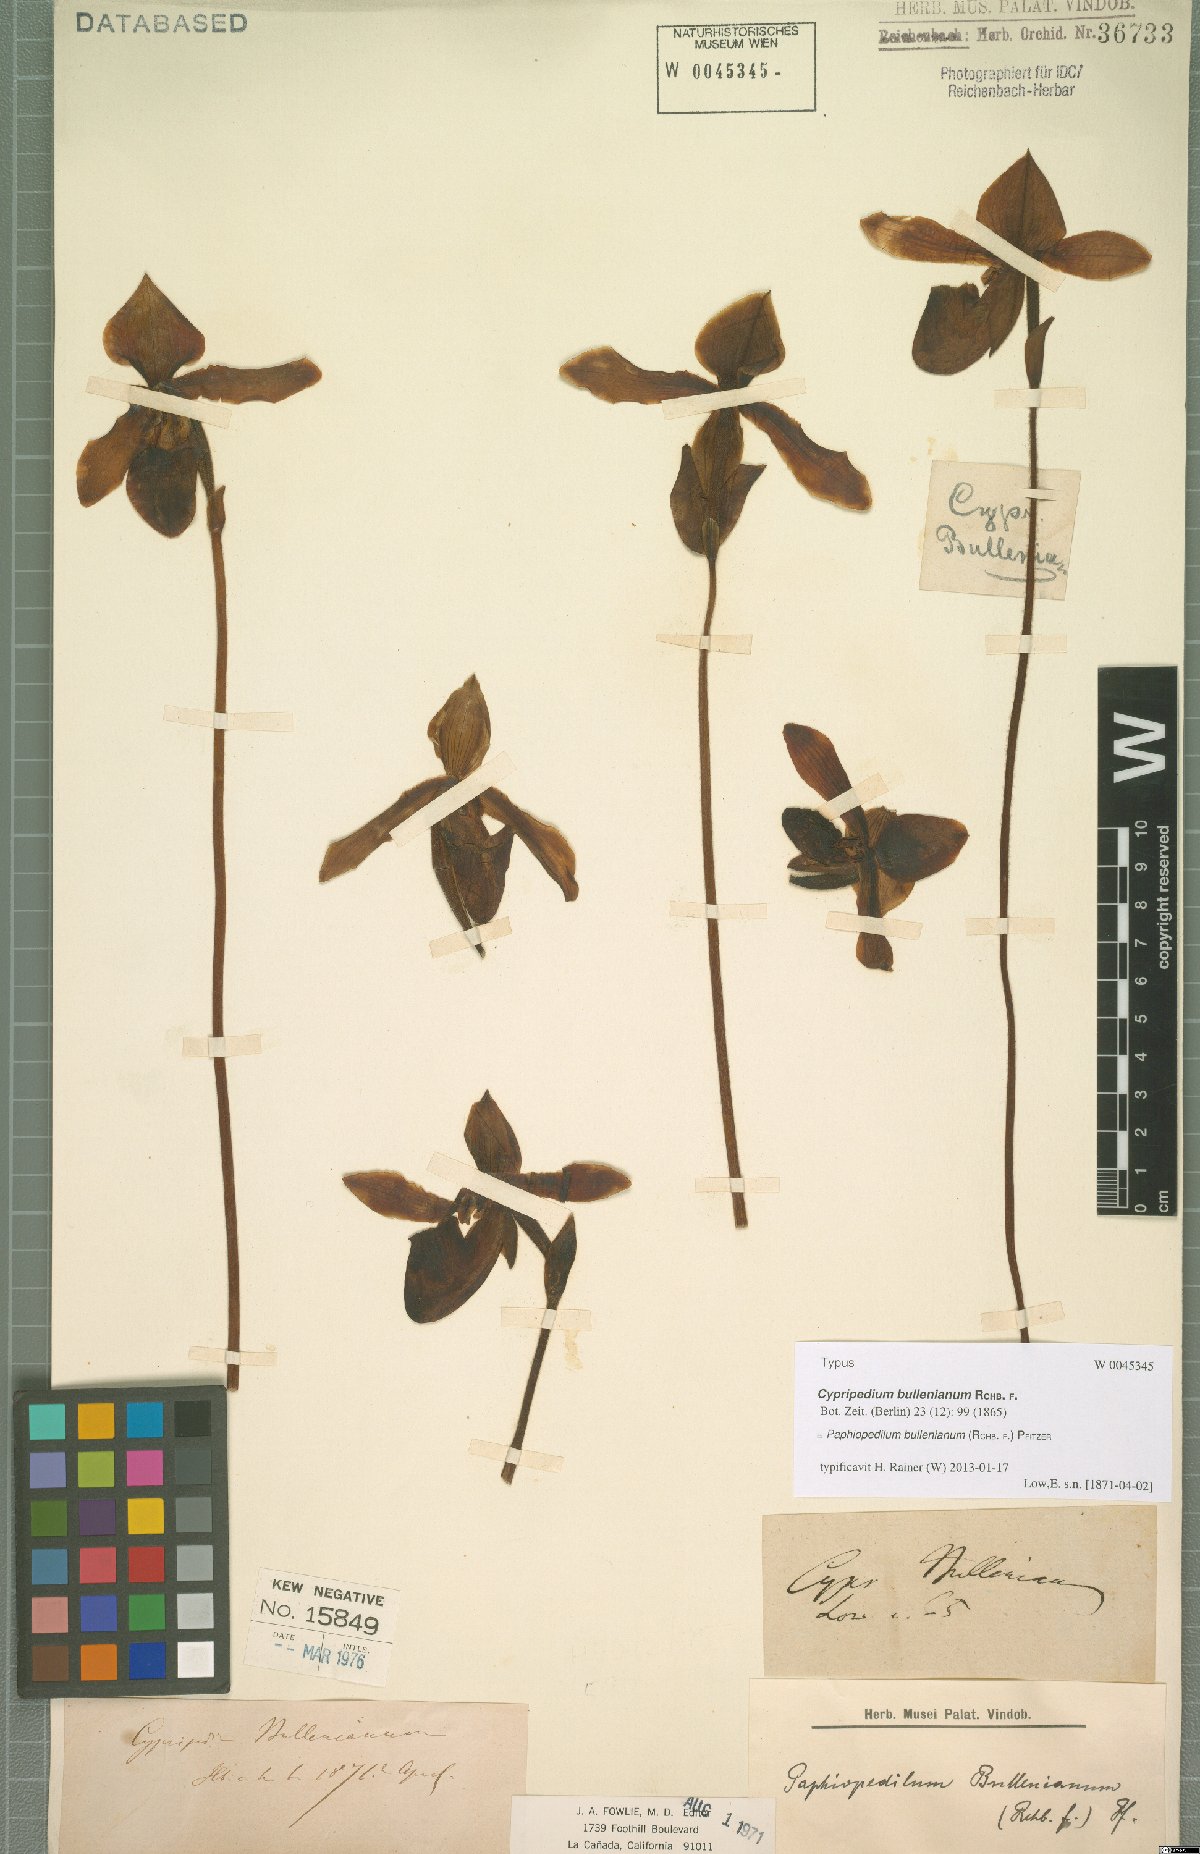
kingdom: Plantae
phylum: Tracheophyta
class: Liliopsida
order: Asparagales
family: Orchidaceae
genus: Paphiopedilum
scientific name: Paphiopedilum bullenianum
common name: Bullen's paphiopedilum
